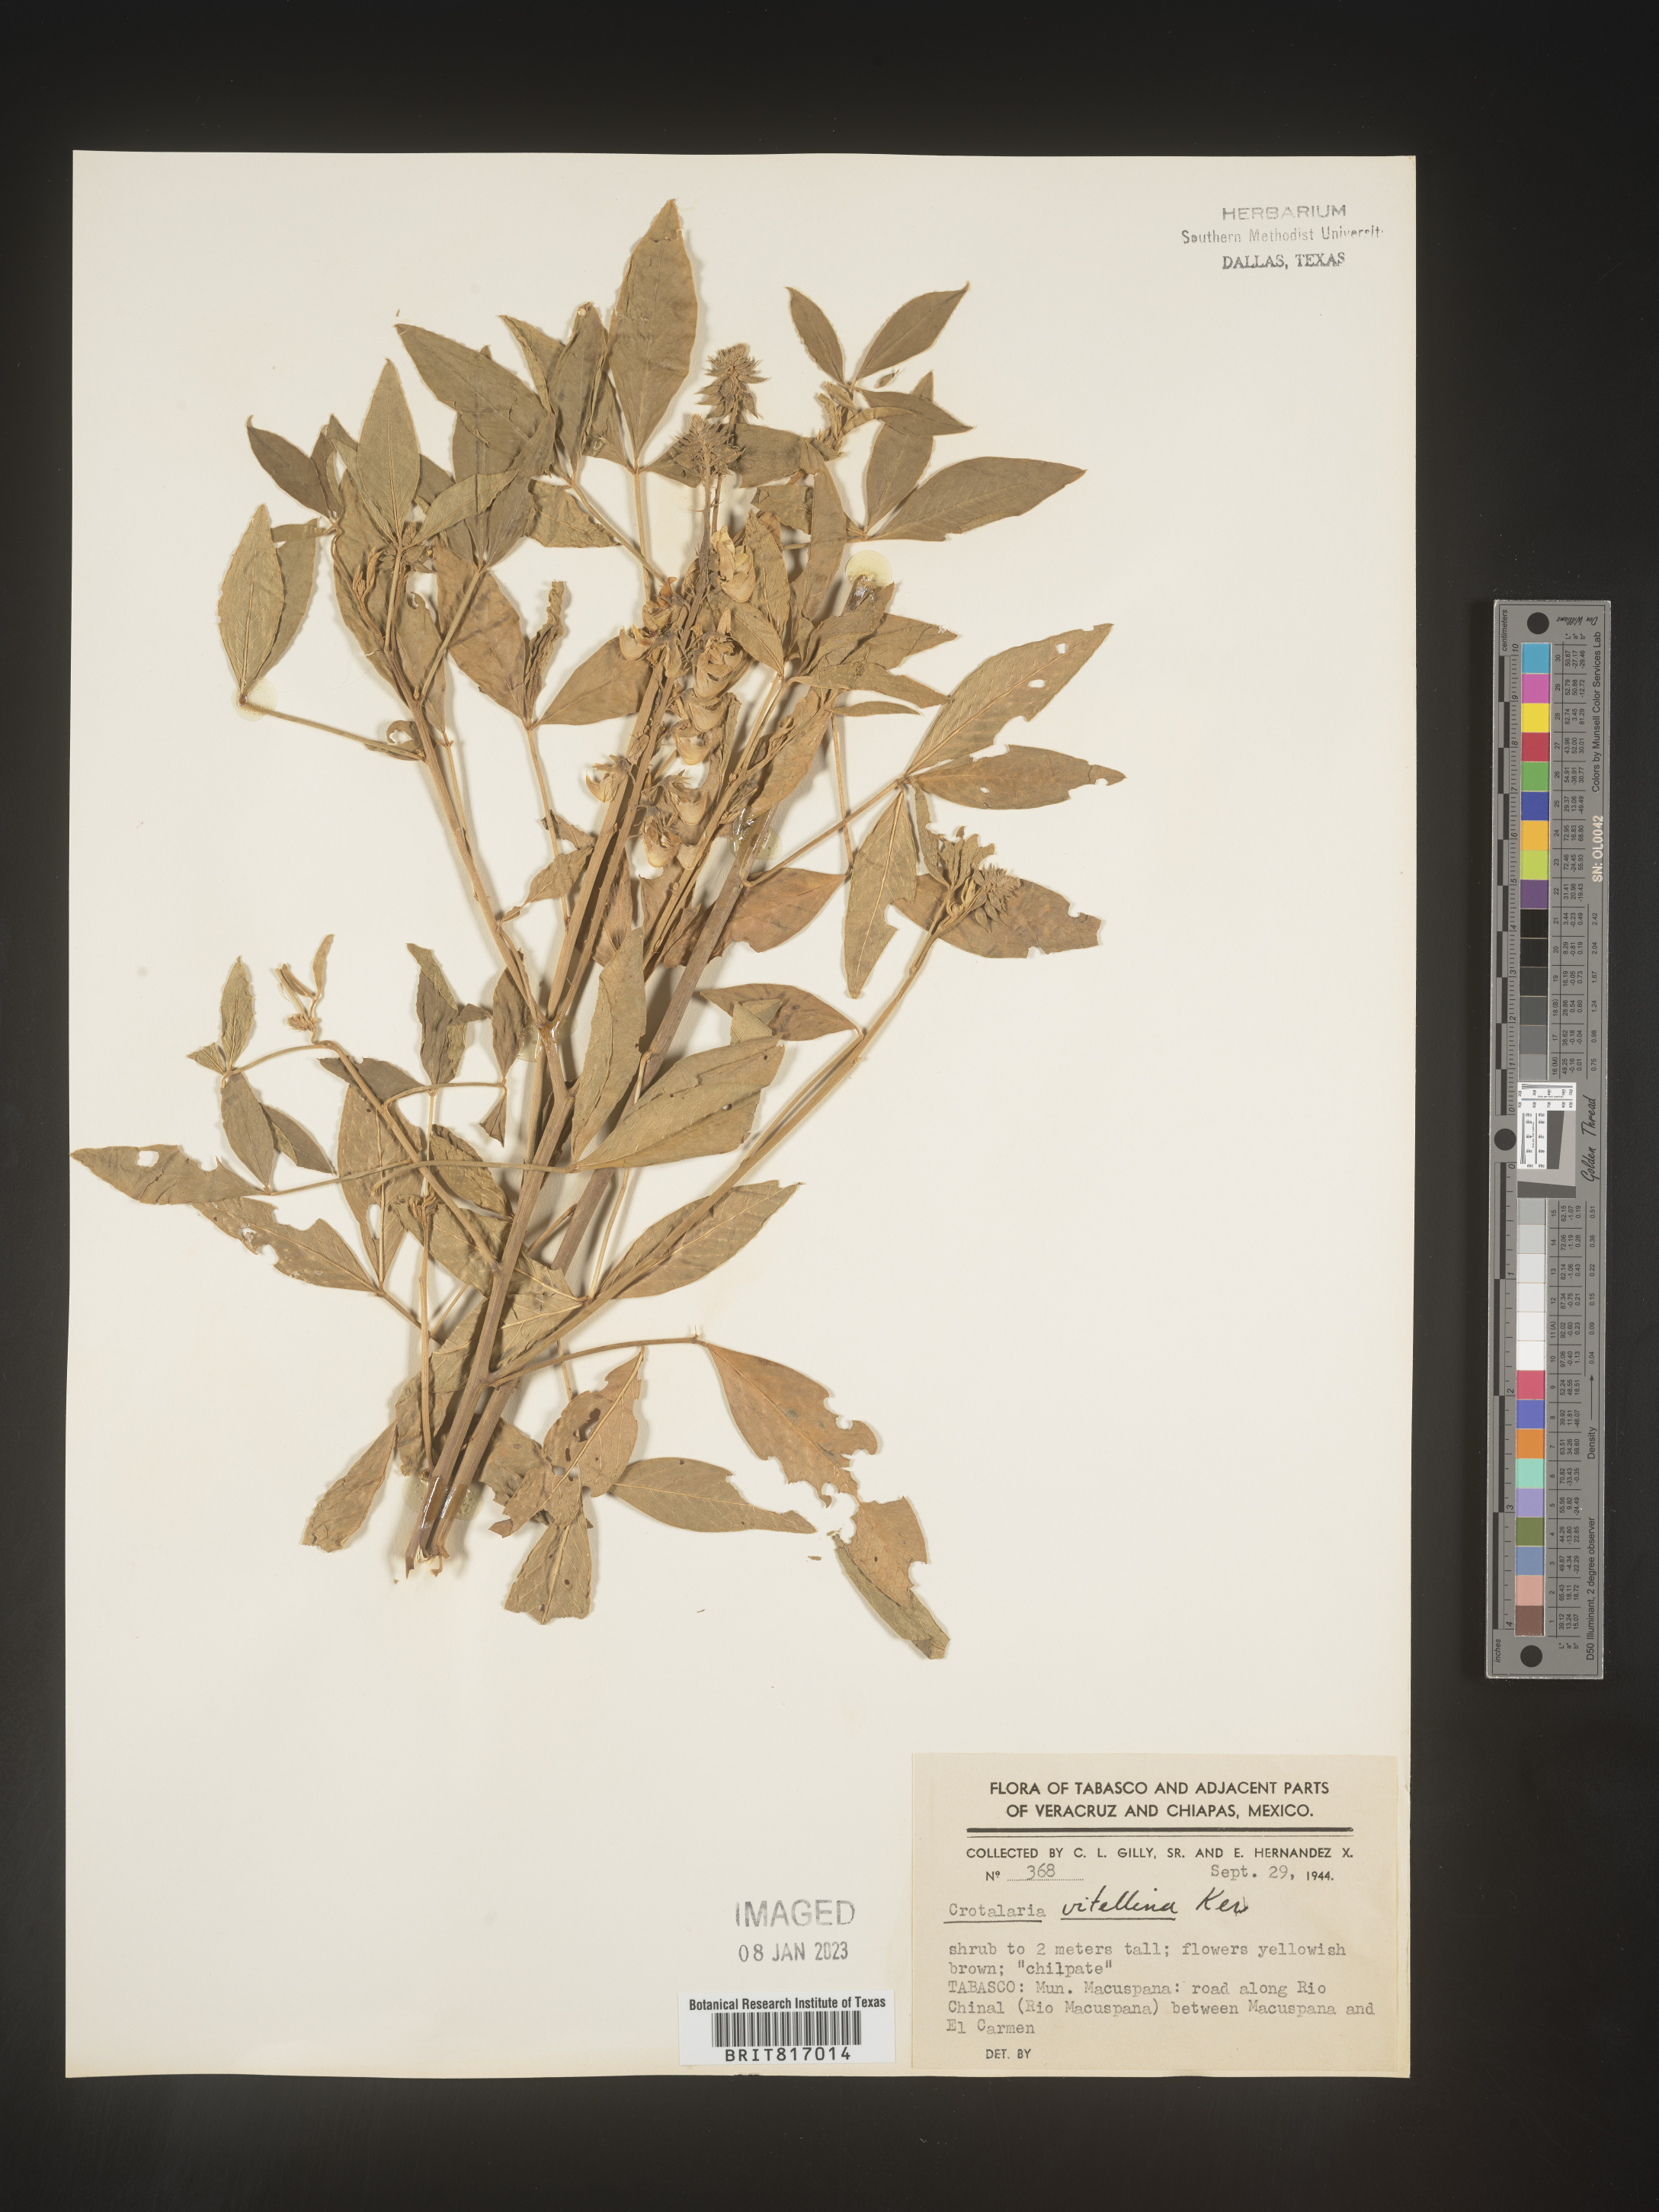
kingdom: Plantae
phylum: Tracheophyta
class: Magnoliopsida
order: Fabales
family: Fabaceae
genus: Crotalaria
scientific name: Crotalaria
